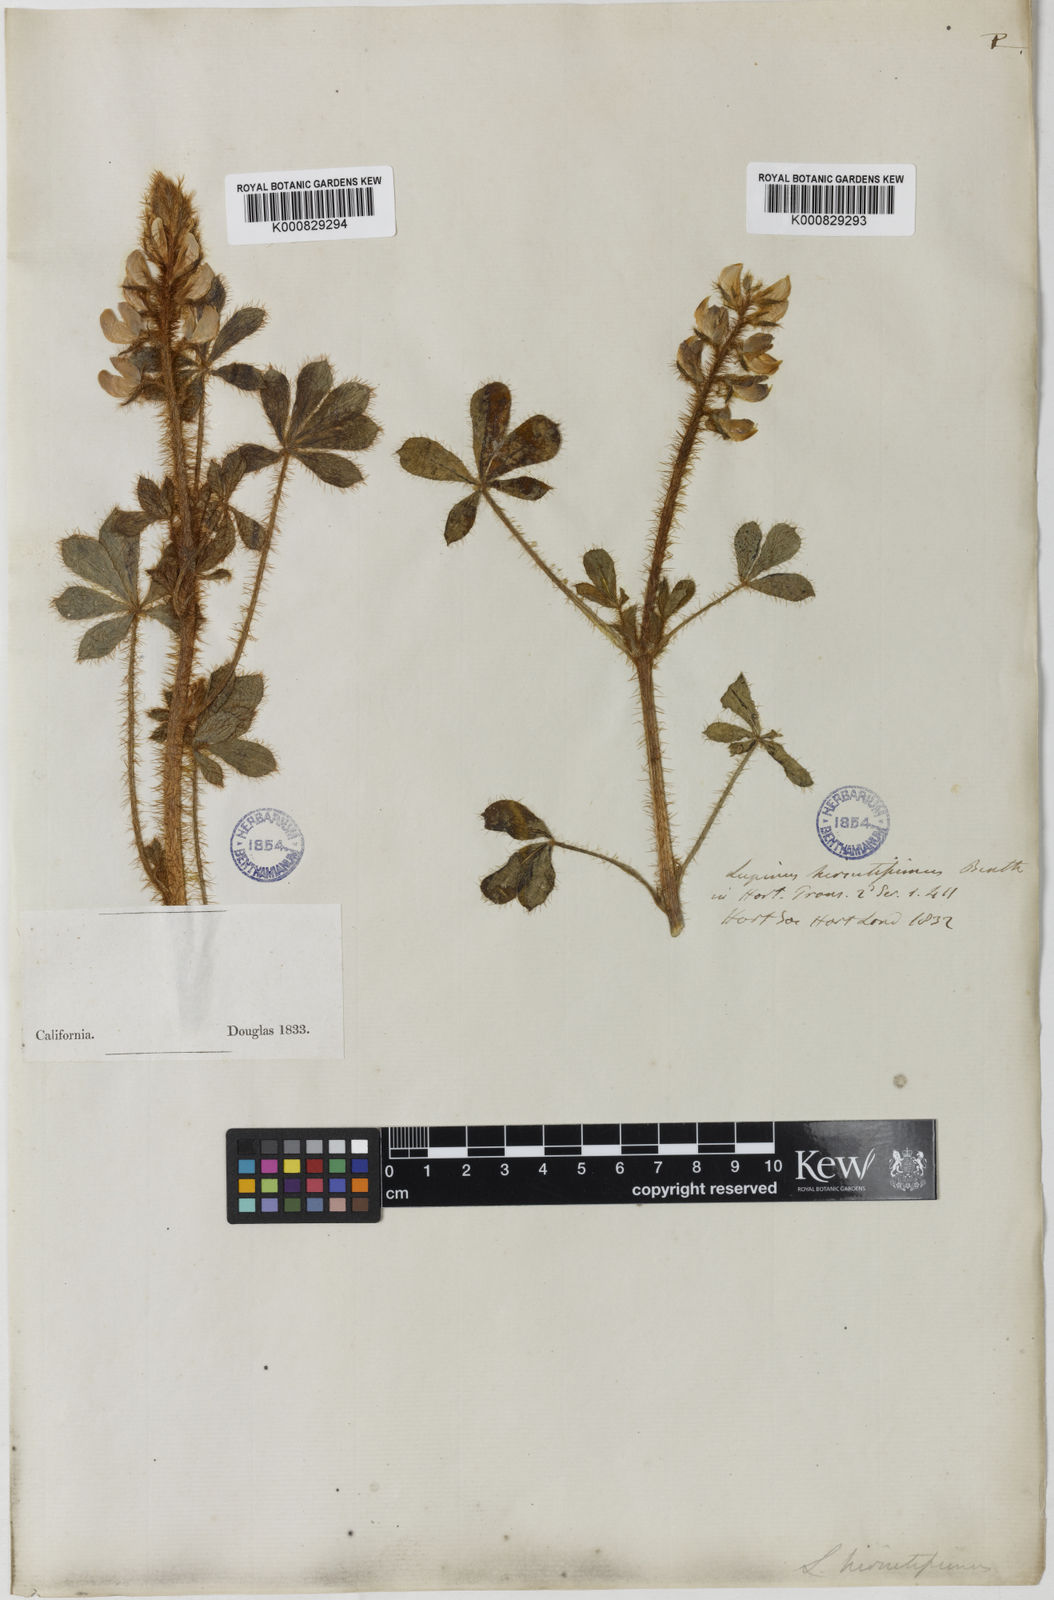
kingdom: Plantae
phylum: Tracheophyta
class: Magnoliopsida
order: Fabales
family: Fabaceae
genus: Lupinus
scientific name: Lupinus hirsutissimus
